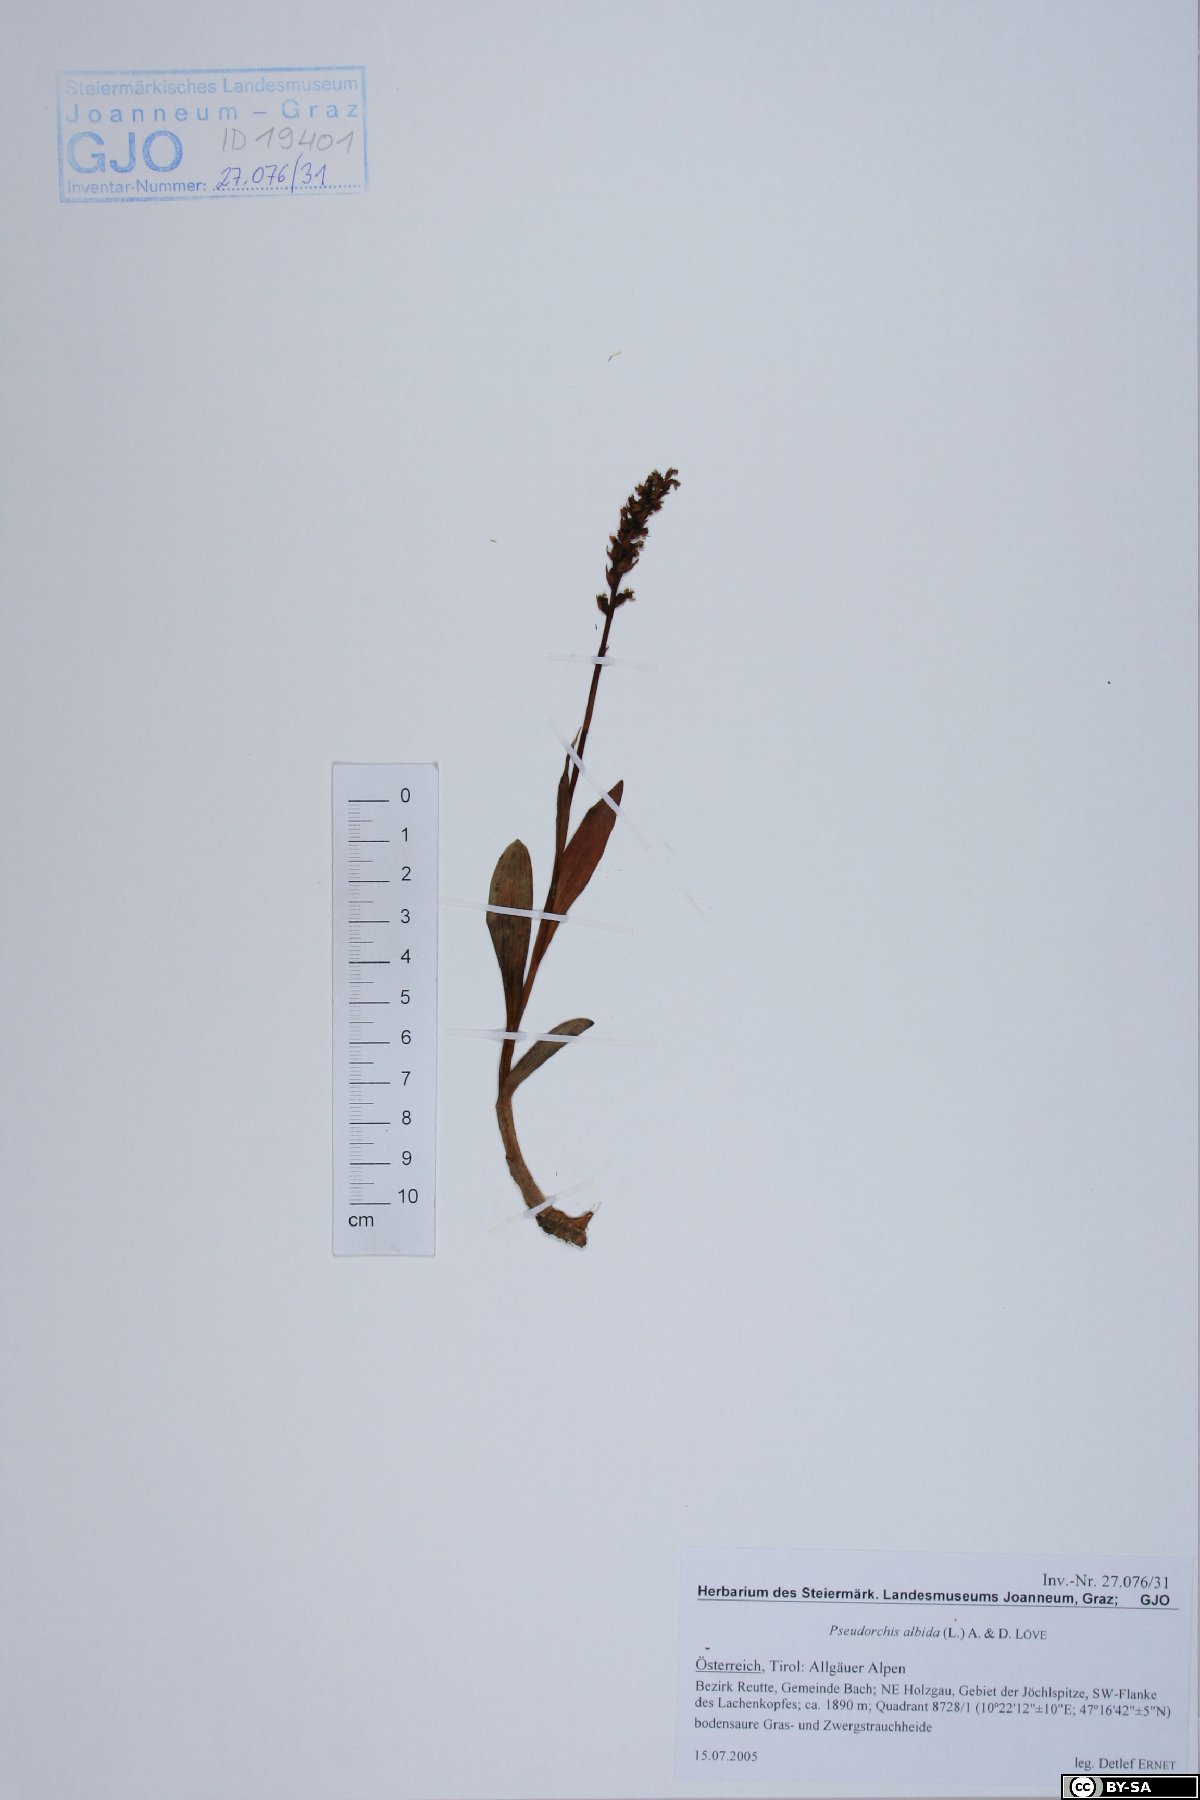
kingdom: Plantae
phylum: Tracheophyta
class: Liliopsida
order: Asparagales
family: Orchidaceae
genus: Pseudorchis
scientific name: Pseudorchis albida
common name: Small-white orchid
